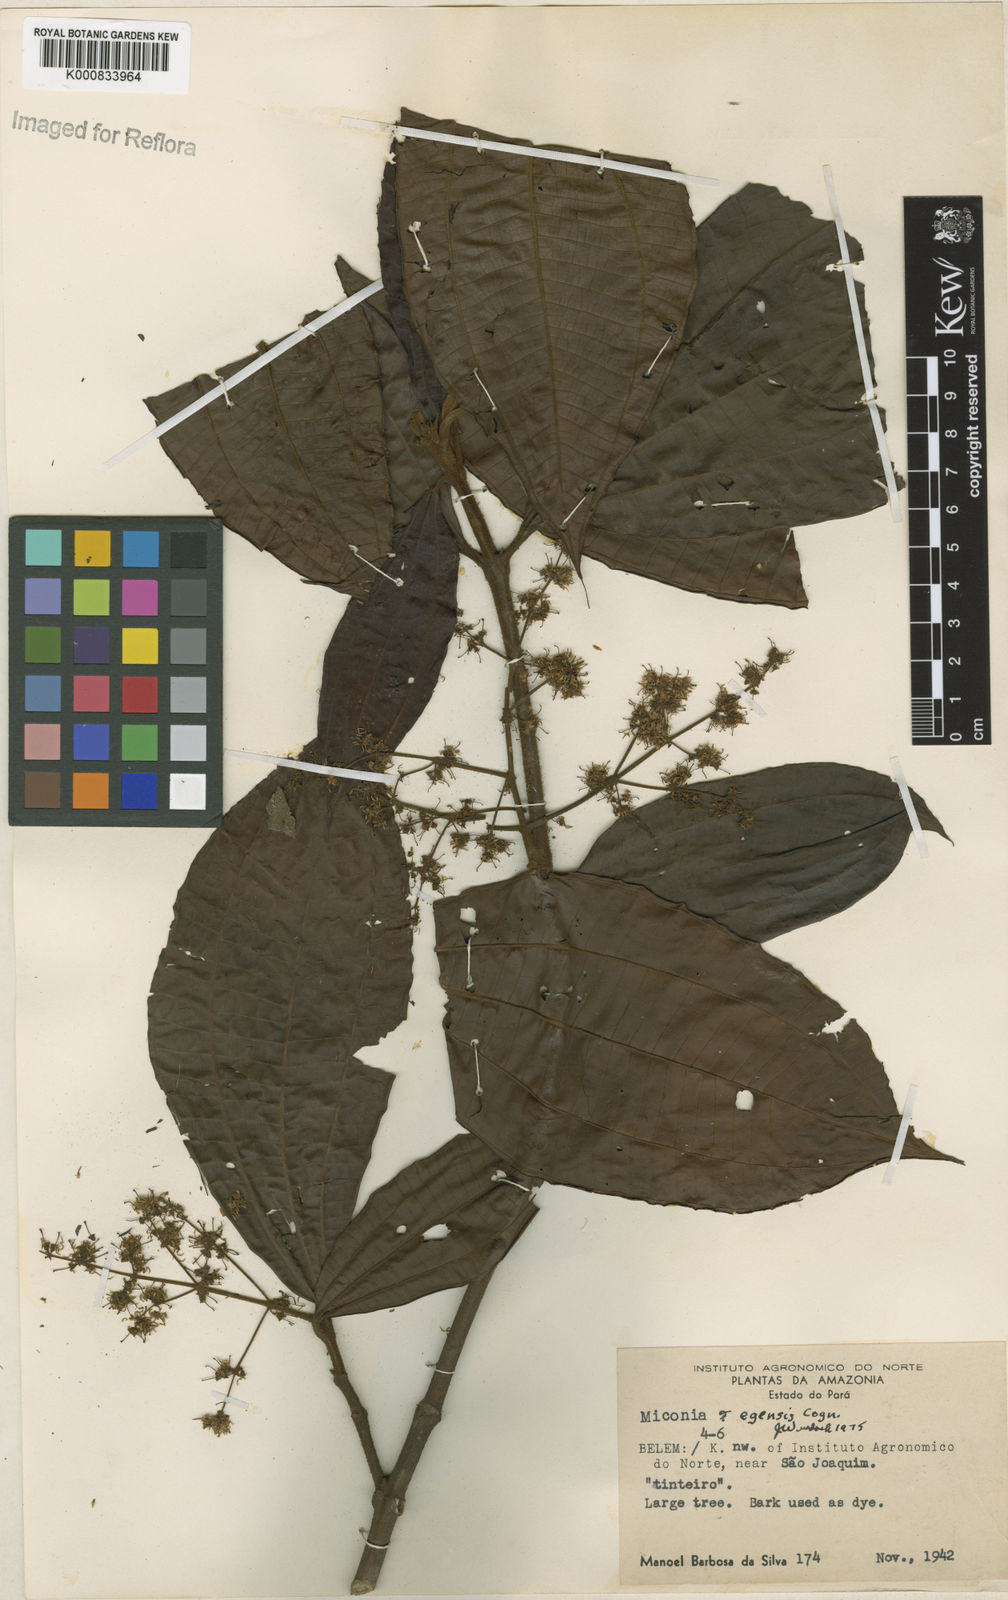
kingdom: Plantae
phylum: Tracheophyta
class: Magnoliopsida
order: Myrtales
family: Melastomataceae
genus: Miconia
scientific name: Miconia egensis
